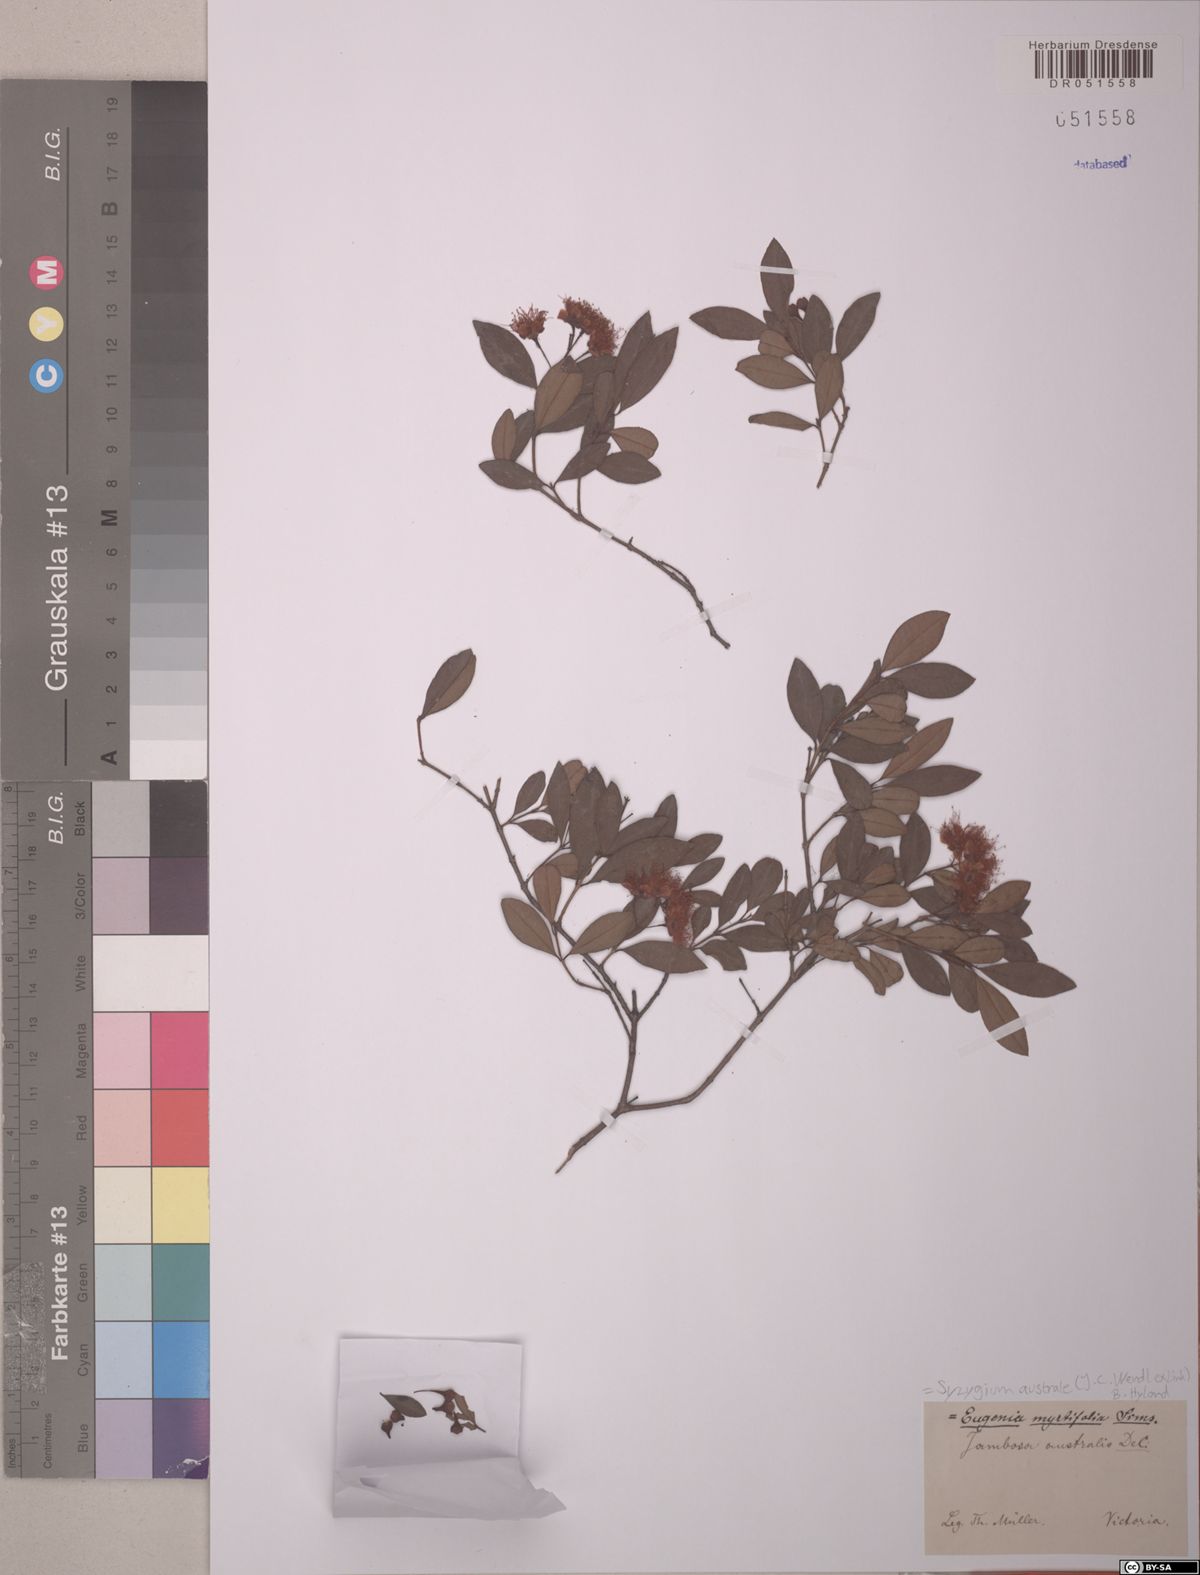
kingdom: Plantae
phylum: Tracheophyta
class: Magnoliopsida
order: Myrtales
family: Myrtaceae
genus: Syzygium
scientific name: Syzygium australe
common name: Australian brush-cherry
